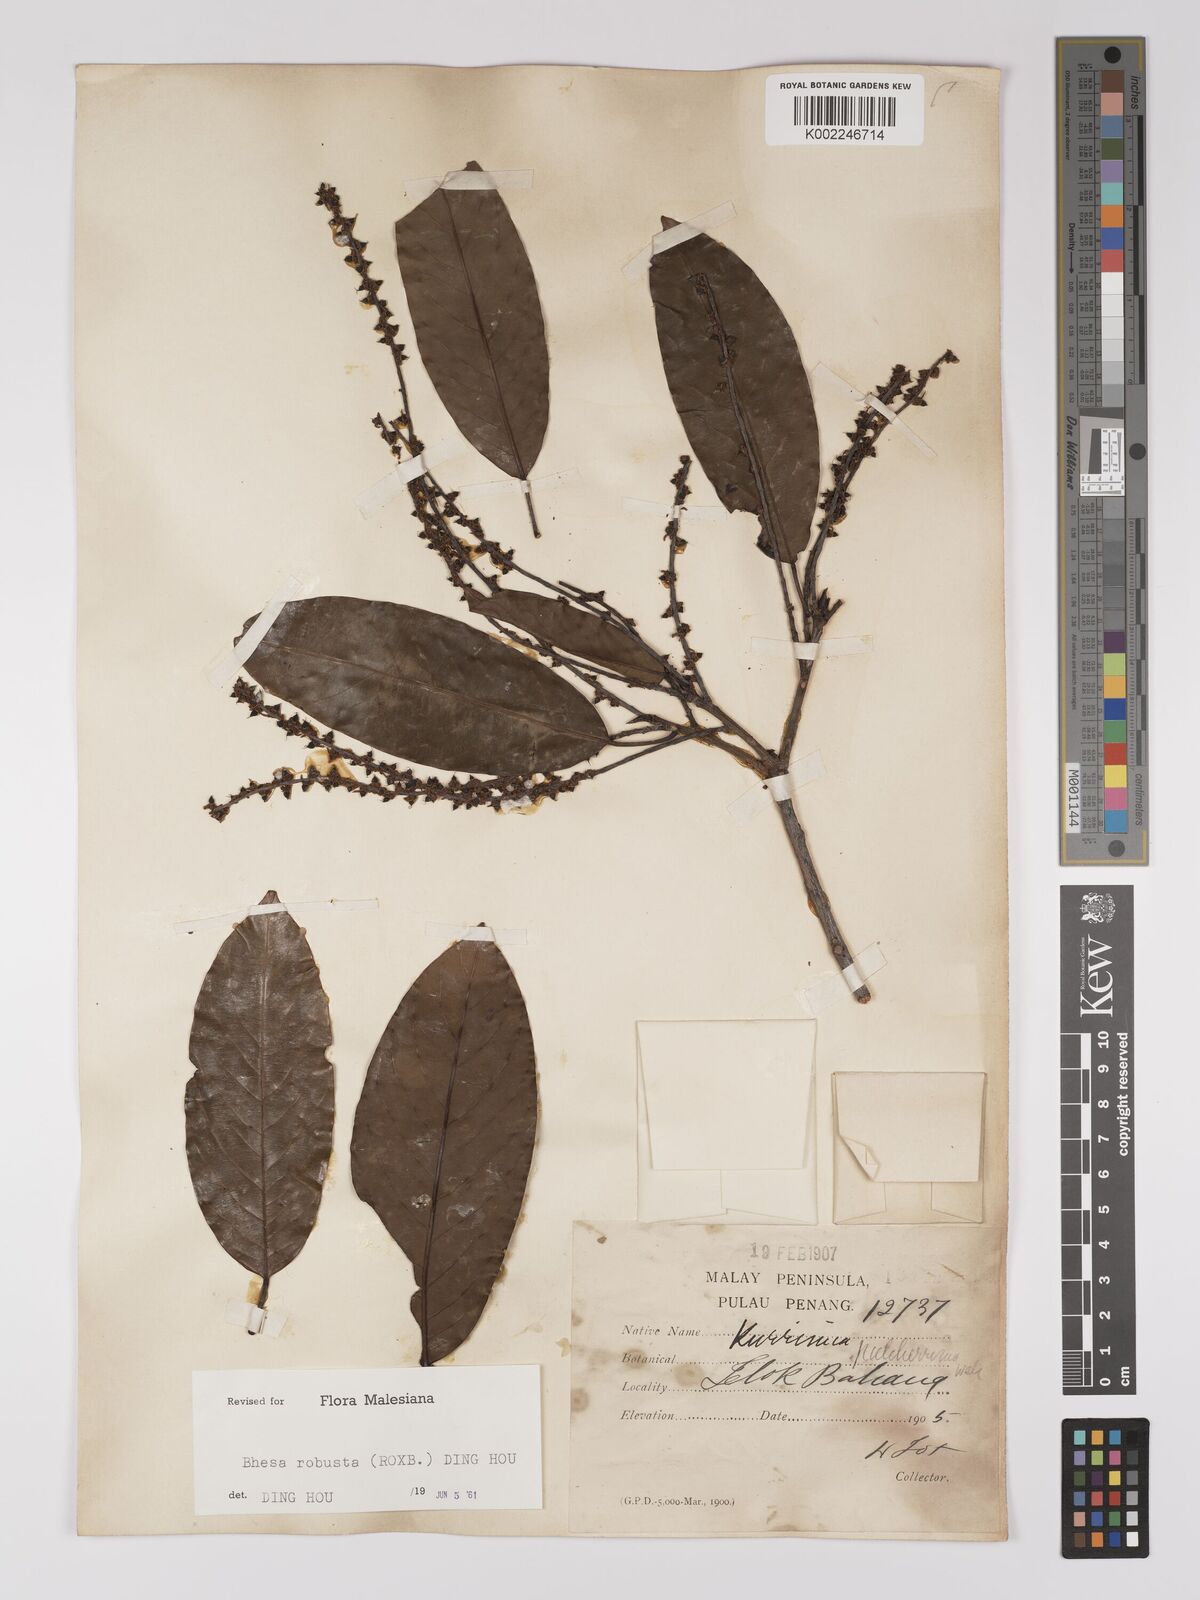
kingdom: Plantae
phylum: Tracheophyta
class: Magnoliopsida
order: Malpighiales
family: Centroplacaceae
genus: Bhesa
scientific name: Bhesa robusta
